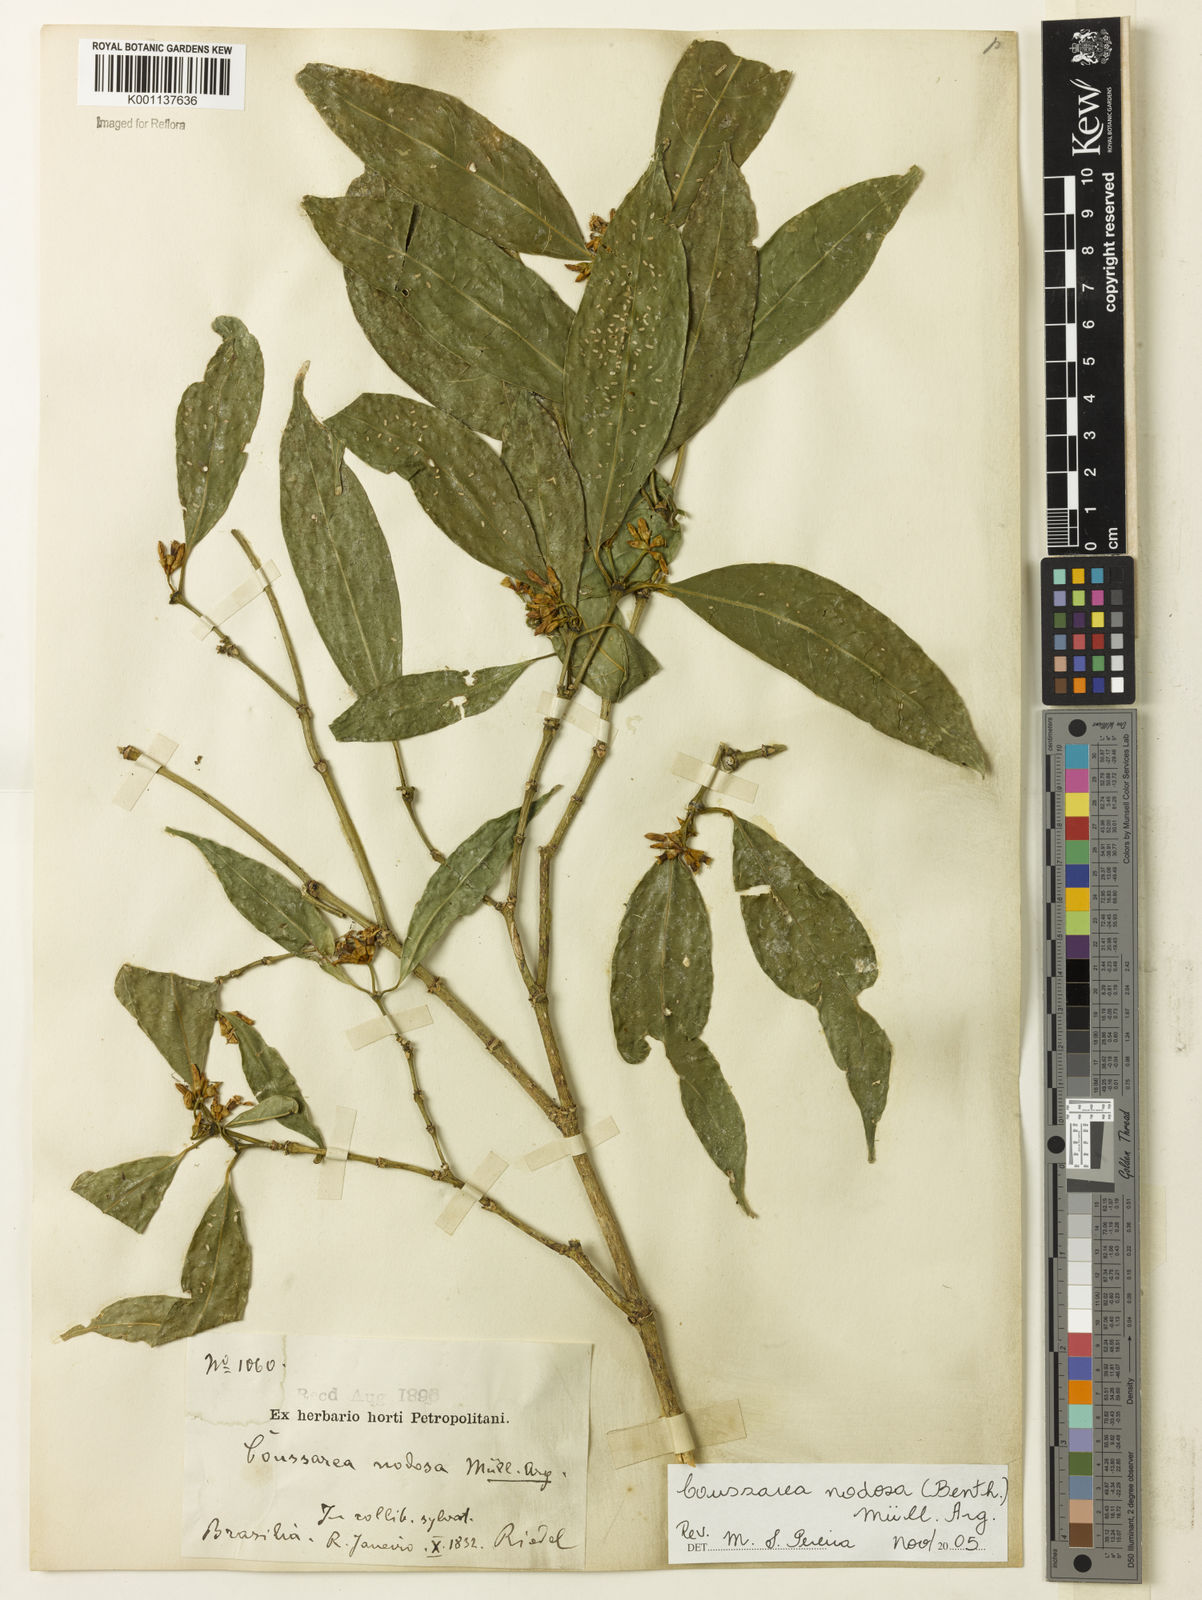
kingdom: Plantae
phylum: Tracheophyta
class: Magnoliopsida
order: Gentianales
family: Rubiaceae
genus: Coussarea
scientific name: Coussarea
